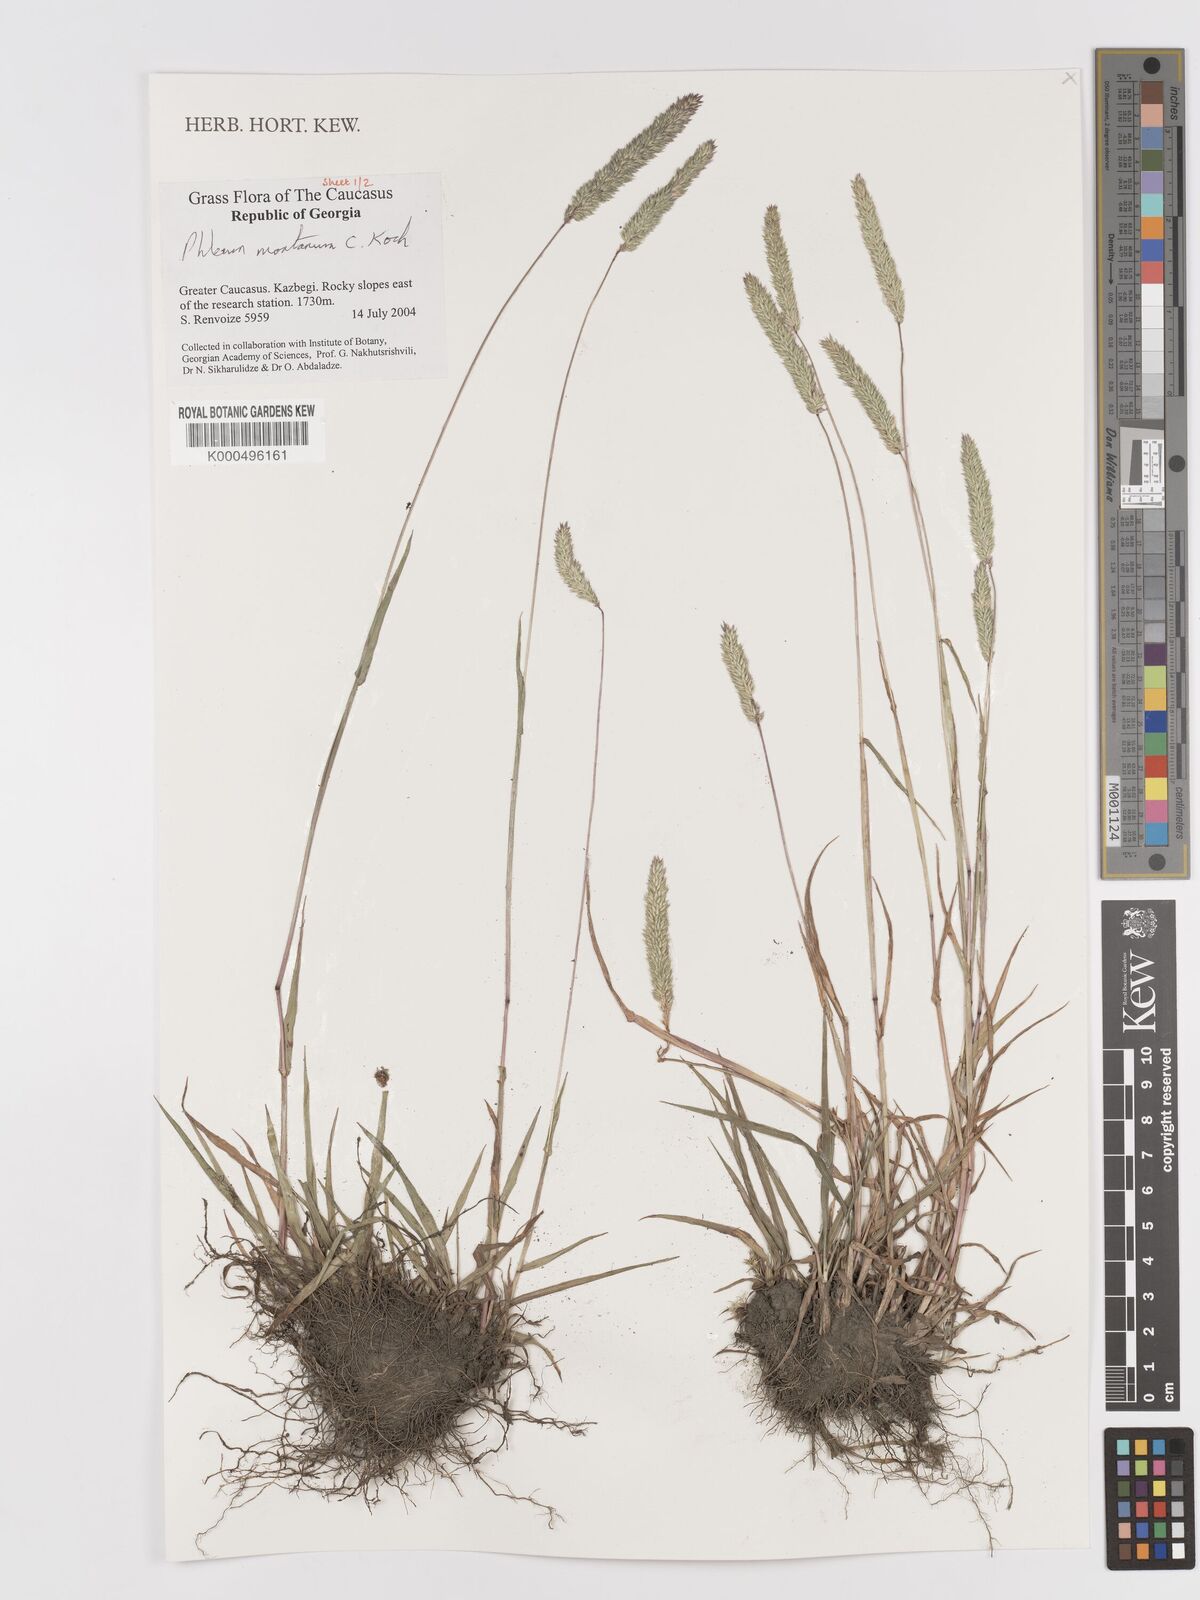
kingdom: Plantae
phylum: Tracheophyta
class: Liliopsida
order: Poales
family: Poaceae
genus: Phleum
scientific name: Phleum montanum
